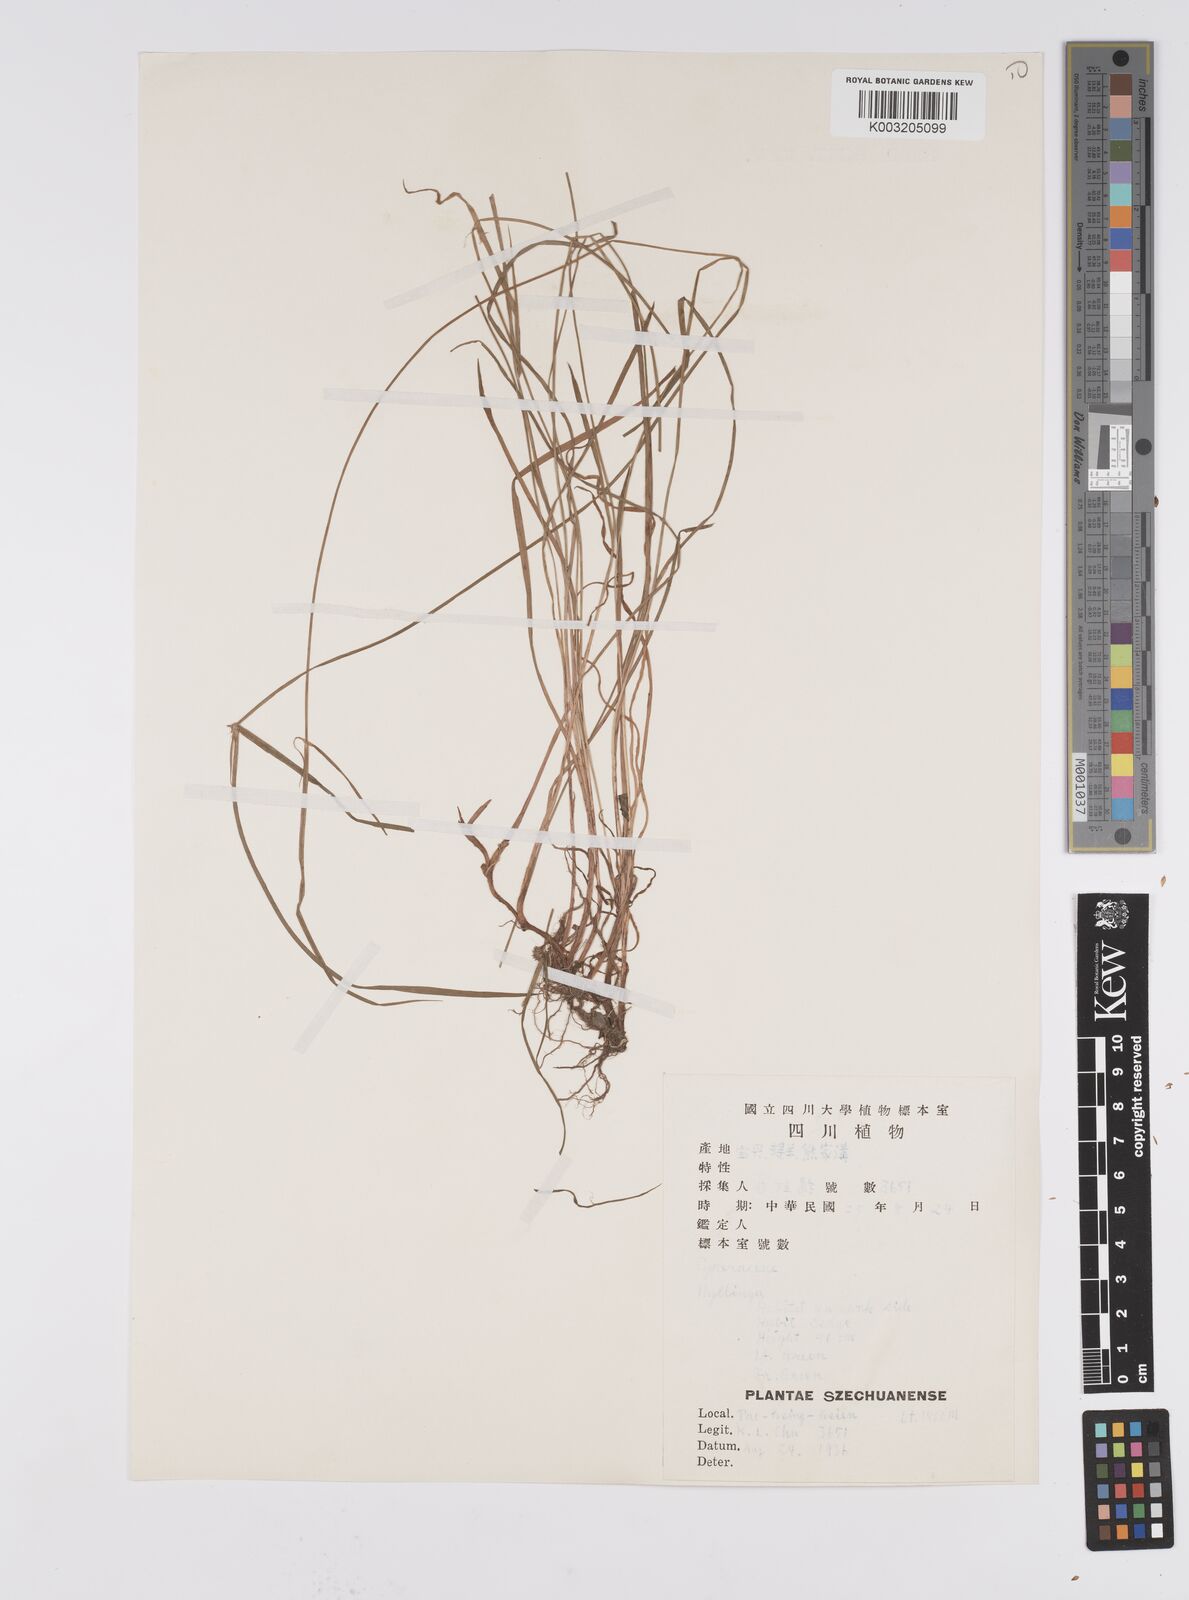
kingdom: Plantae
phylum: Tracheophyta
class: Liliopsida
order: Poales
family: Cyperaceae
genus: Cyperus
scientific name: Cyperus brevifolius
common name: Globe kyllinga
